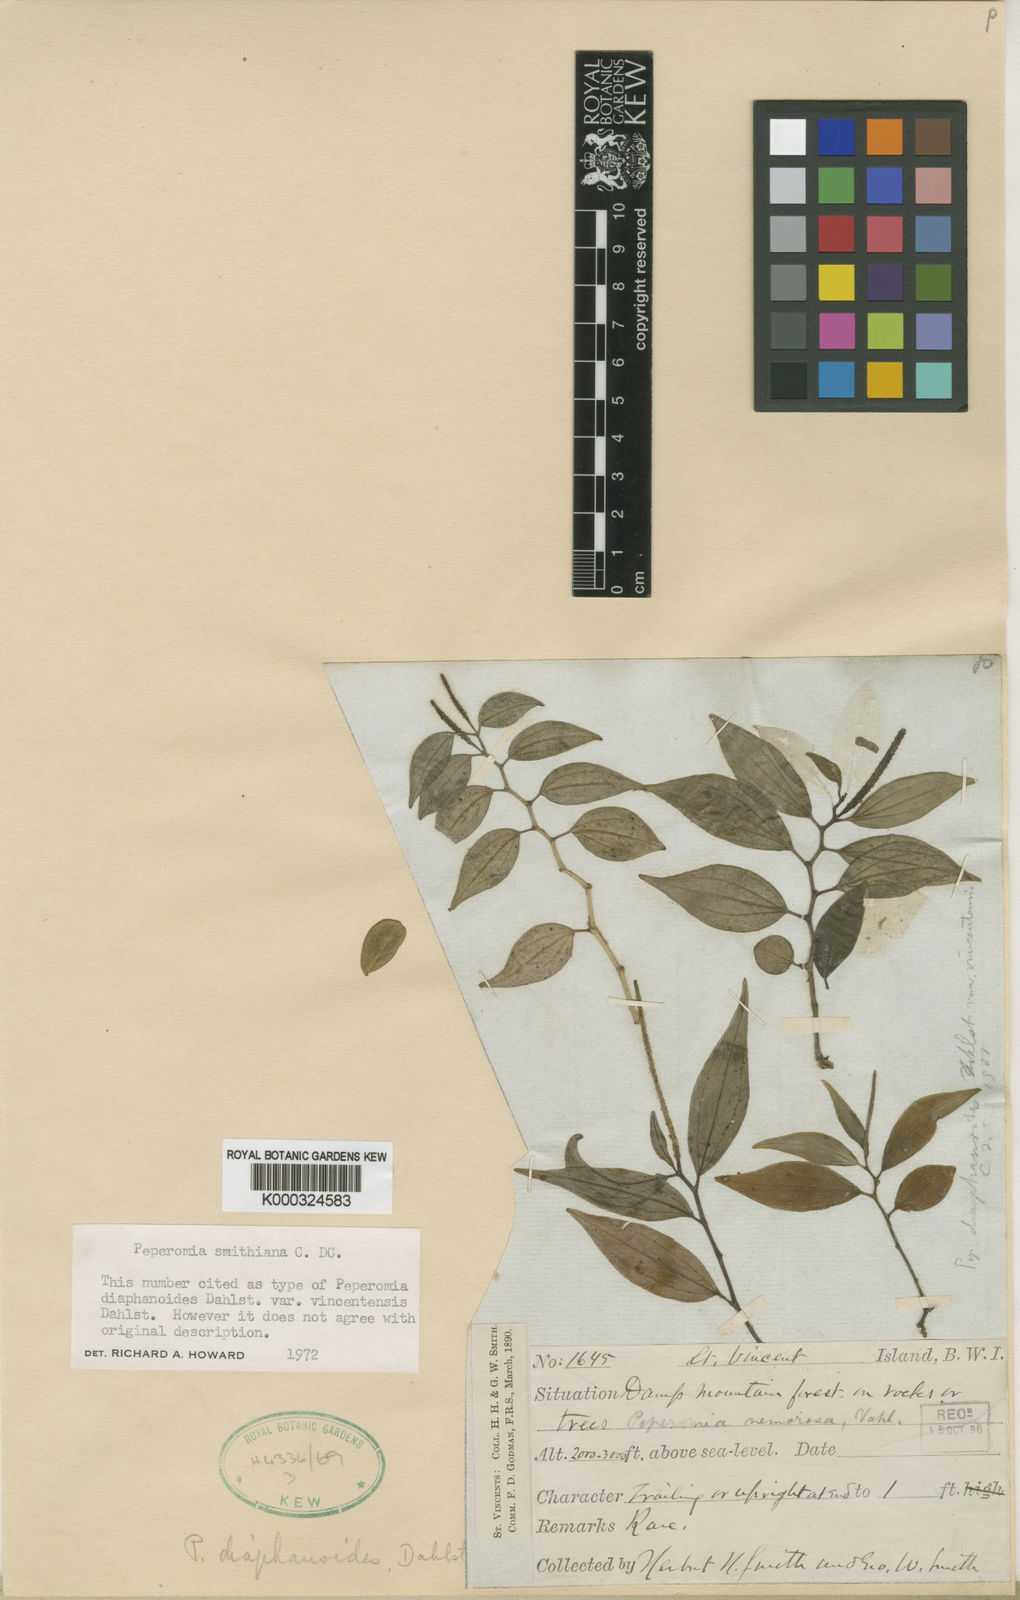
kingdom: Plantae
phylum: Tracheophyta
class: Magnoliopsida
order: Piperales
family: Piperaceae
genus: Peperomia
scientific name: Peperomia smithiana
